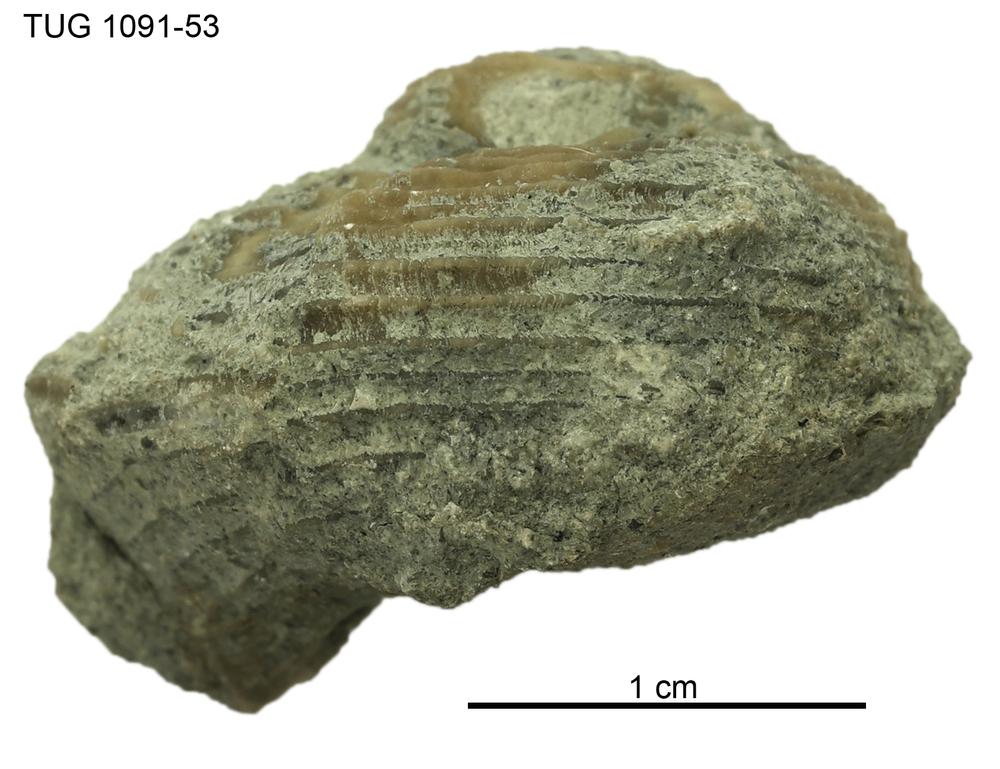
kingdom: Animalia
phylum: Mollusca
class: Gastropoda
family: Euomphalidae
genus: Poleumita
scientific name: Poleumita
